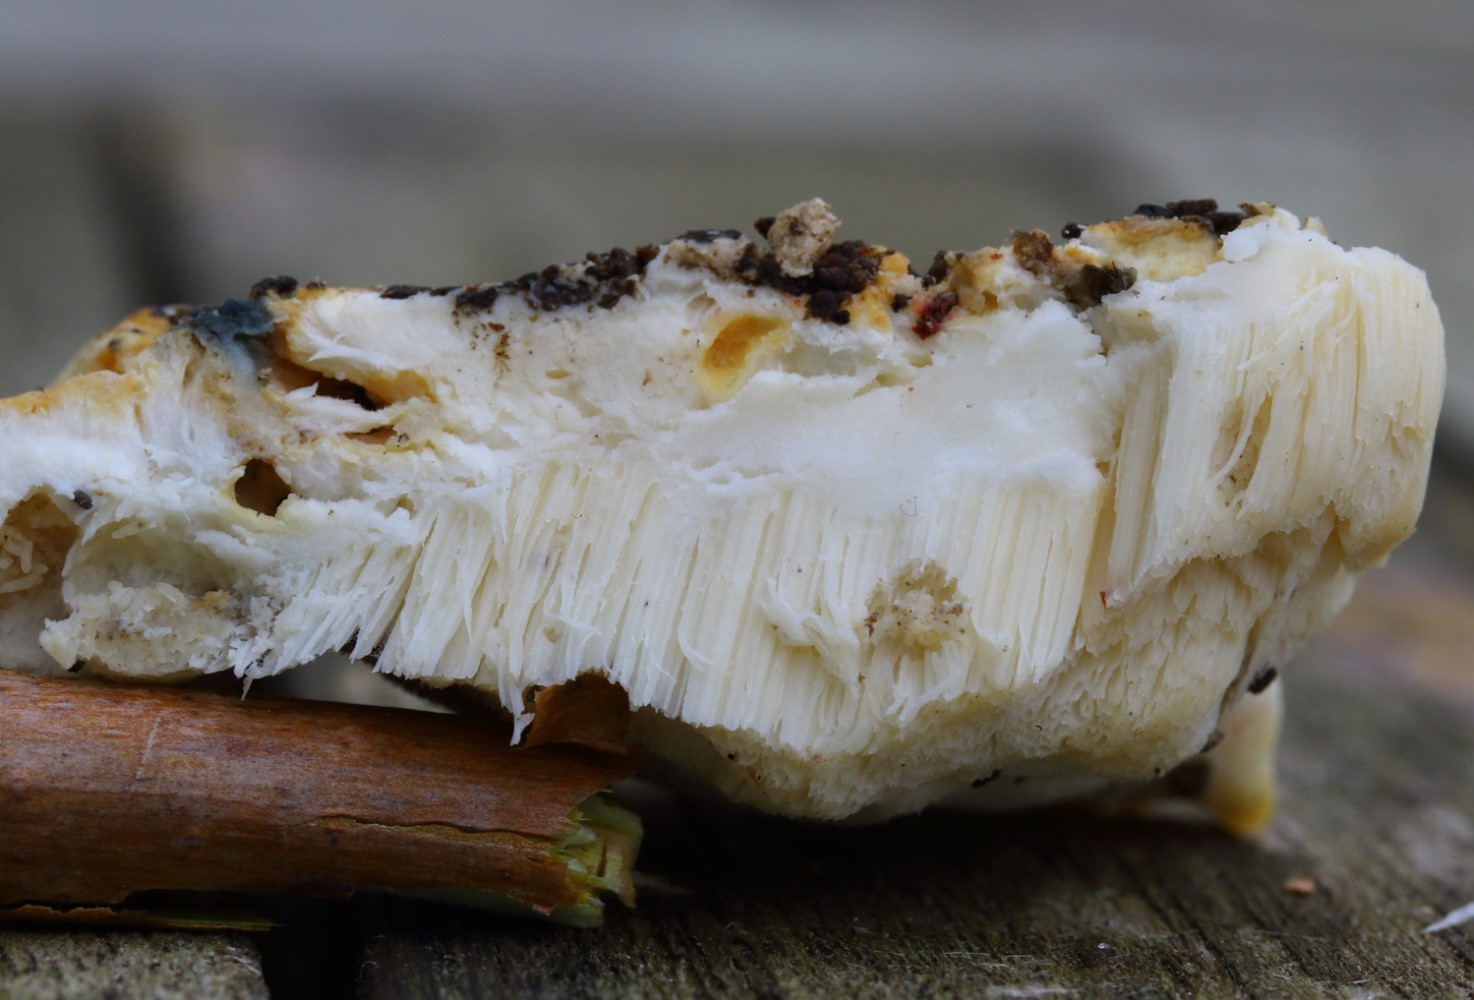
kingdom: Fungi
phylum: Basidiomycota
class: Agaricomycetes
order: Polyporales
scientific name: Polyporales
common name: poresvampordenen
